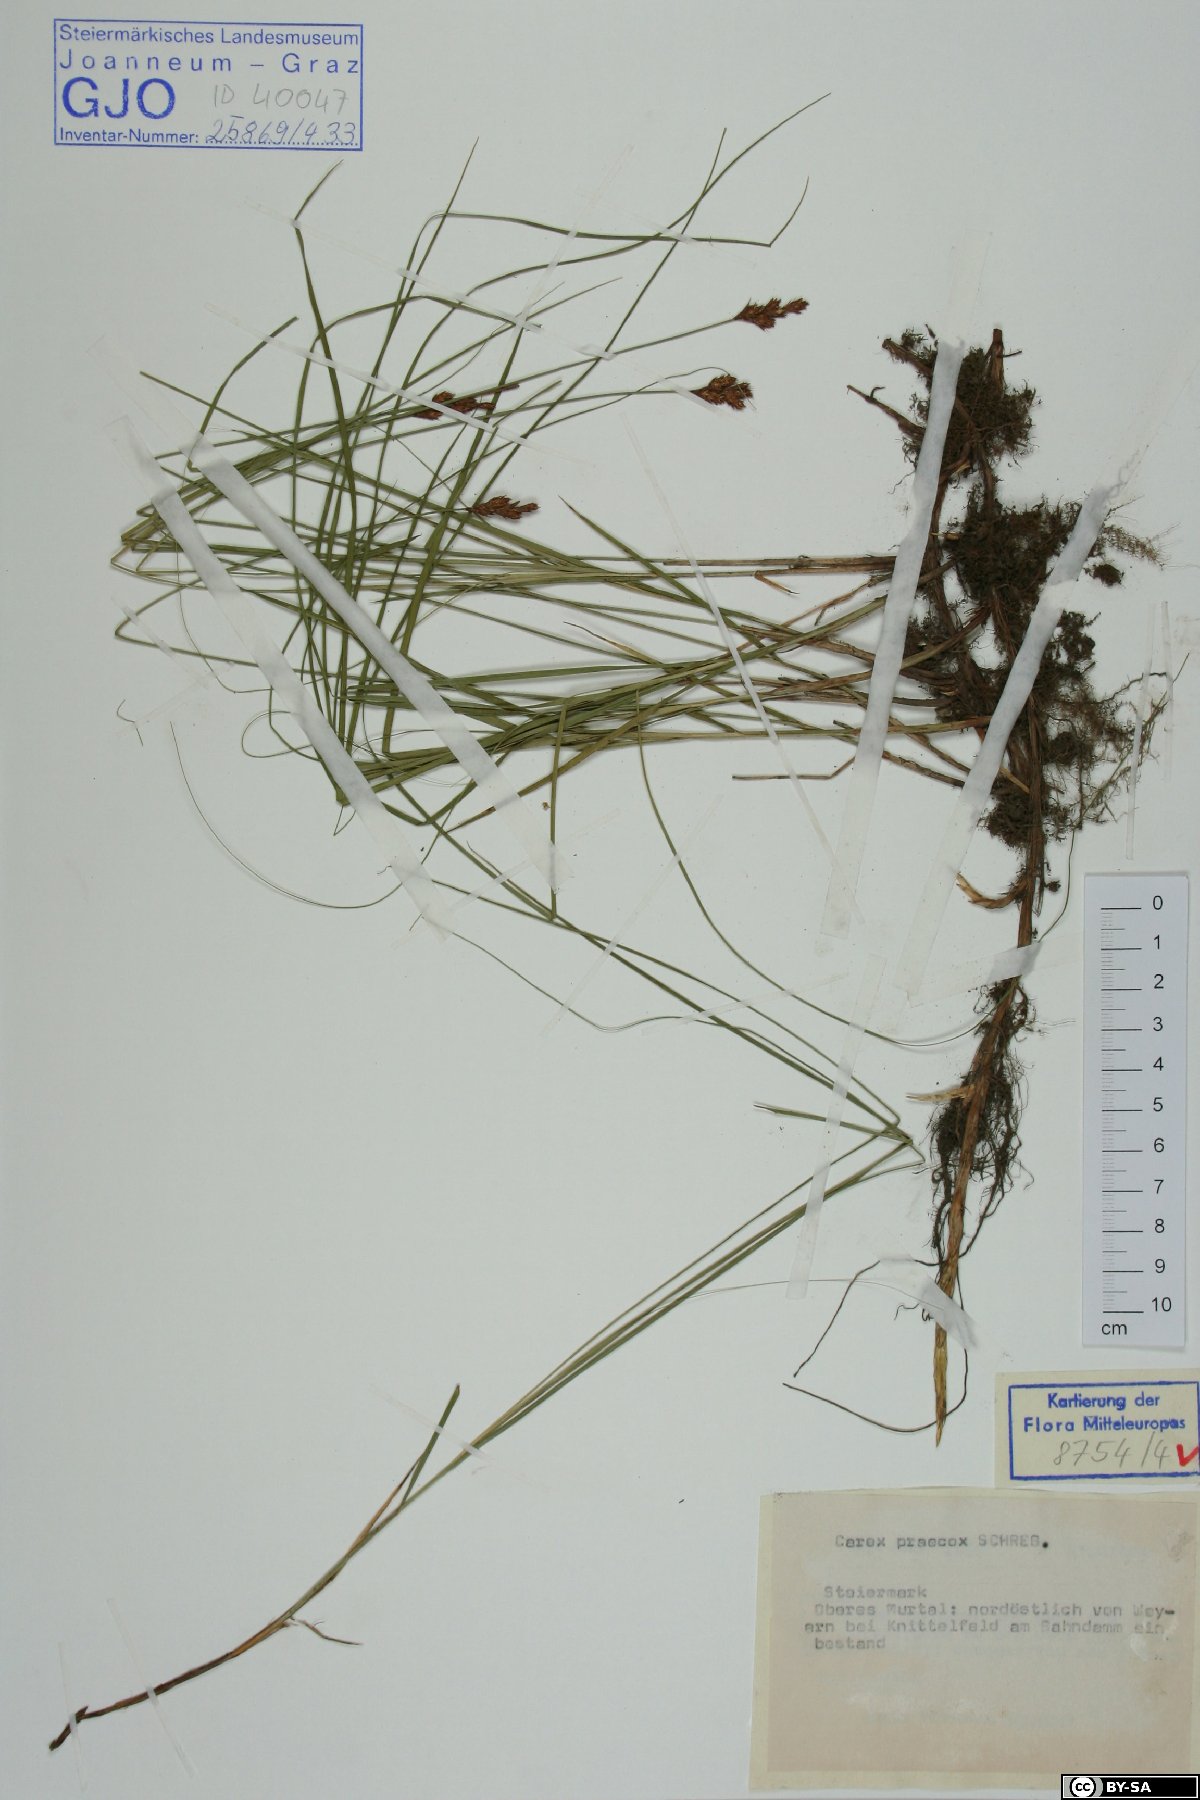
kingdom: Plantae
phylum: Tracheophyta
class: Liliopsida
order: Poales
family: Cyperaceae
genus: Carex
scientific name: Carex praecox
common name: Early sedge
